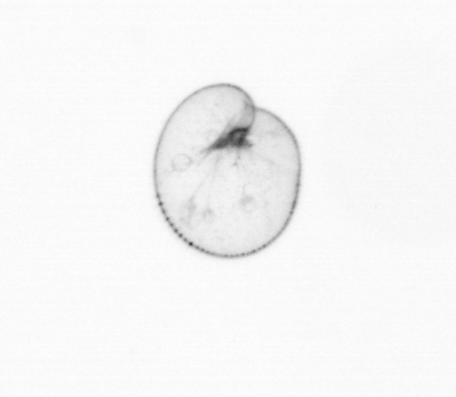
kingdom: Chromista
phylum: Myzozoa
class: Dinophyceae
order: Noctilucales
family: Noctilucaceae
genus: Noctiluca
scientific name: Noctiluca scintillans
